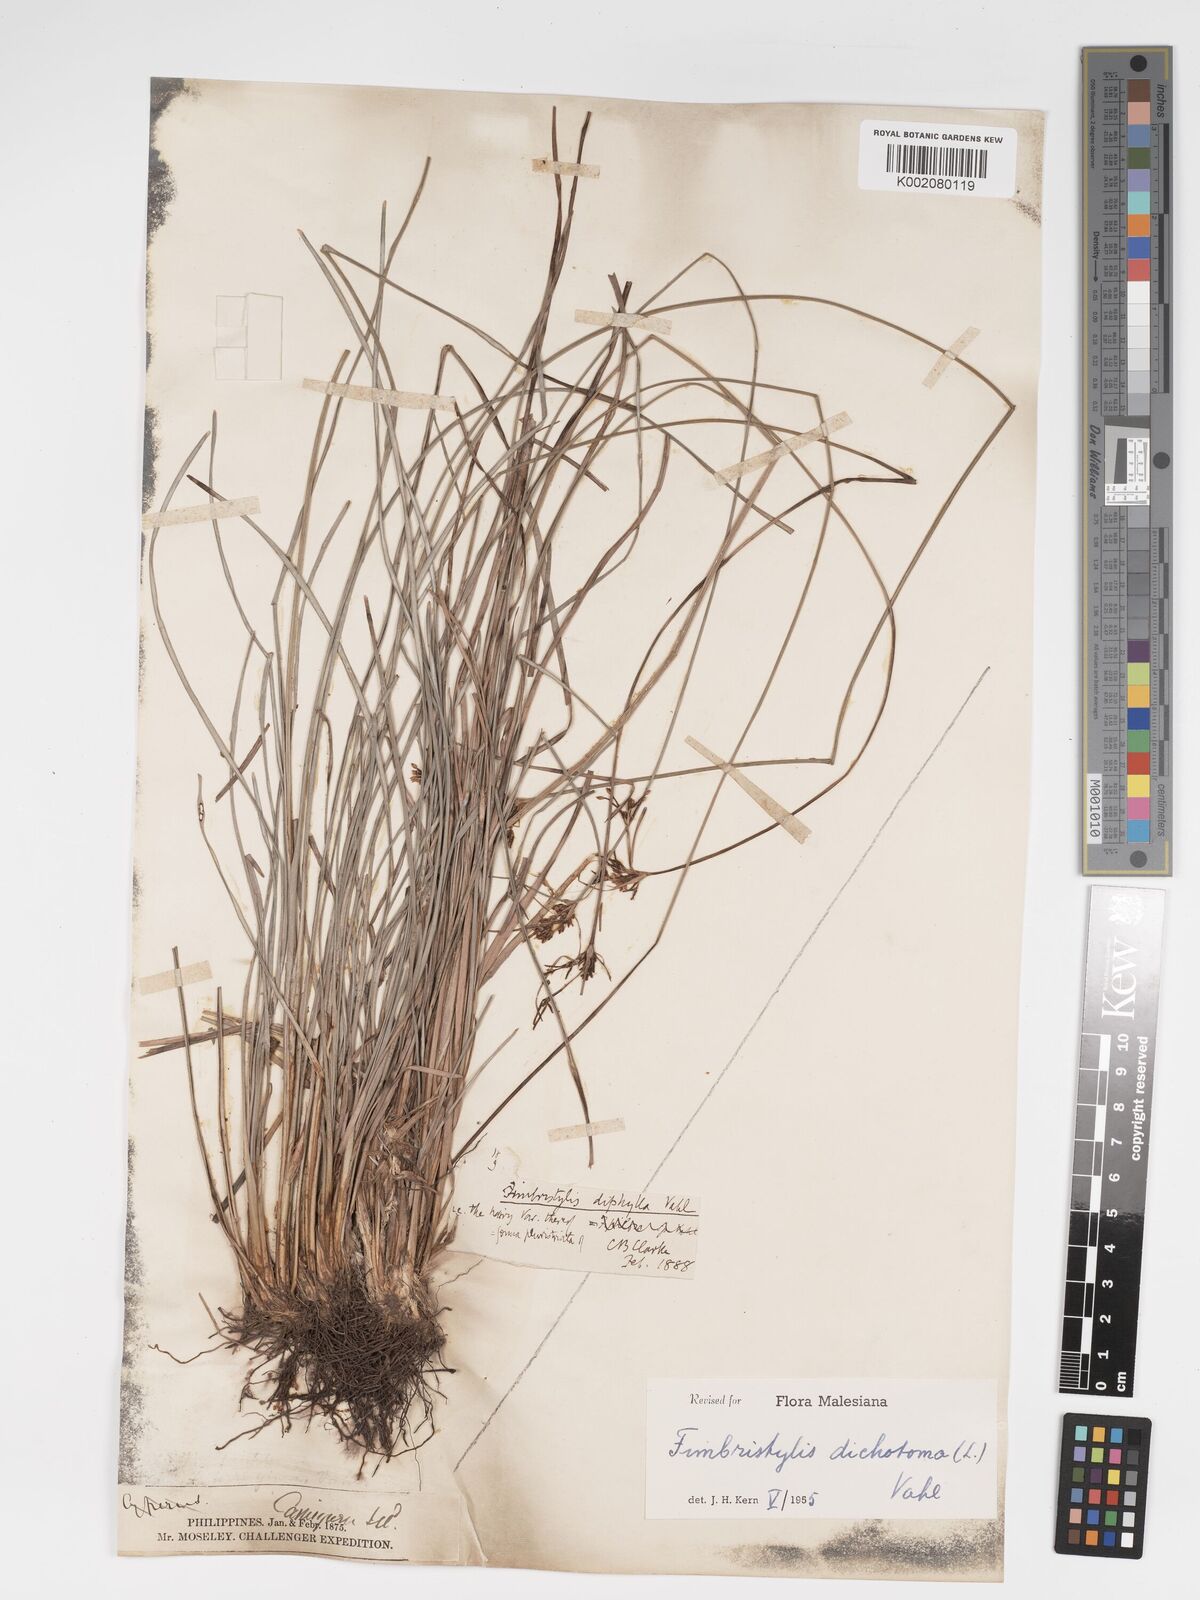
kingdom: Plantae
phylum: Tracheophyta
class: Liliopsida
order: Poales
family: Cyperaceae
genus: Fimbristylis
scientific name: Fimbristylis dichotoma
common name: Forked fimbry
